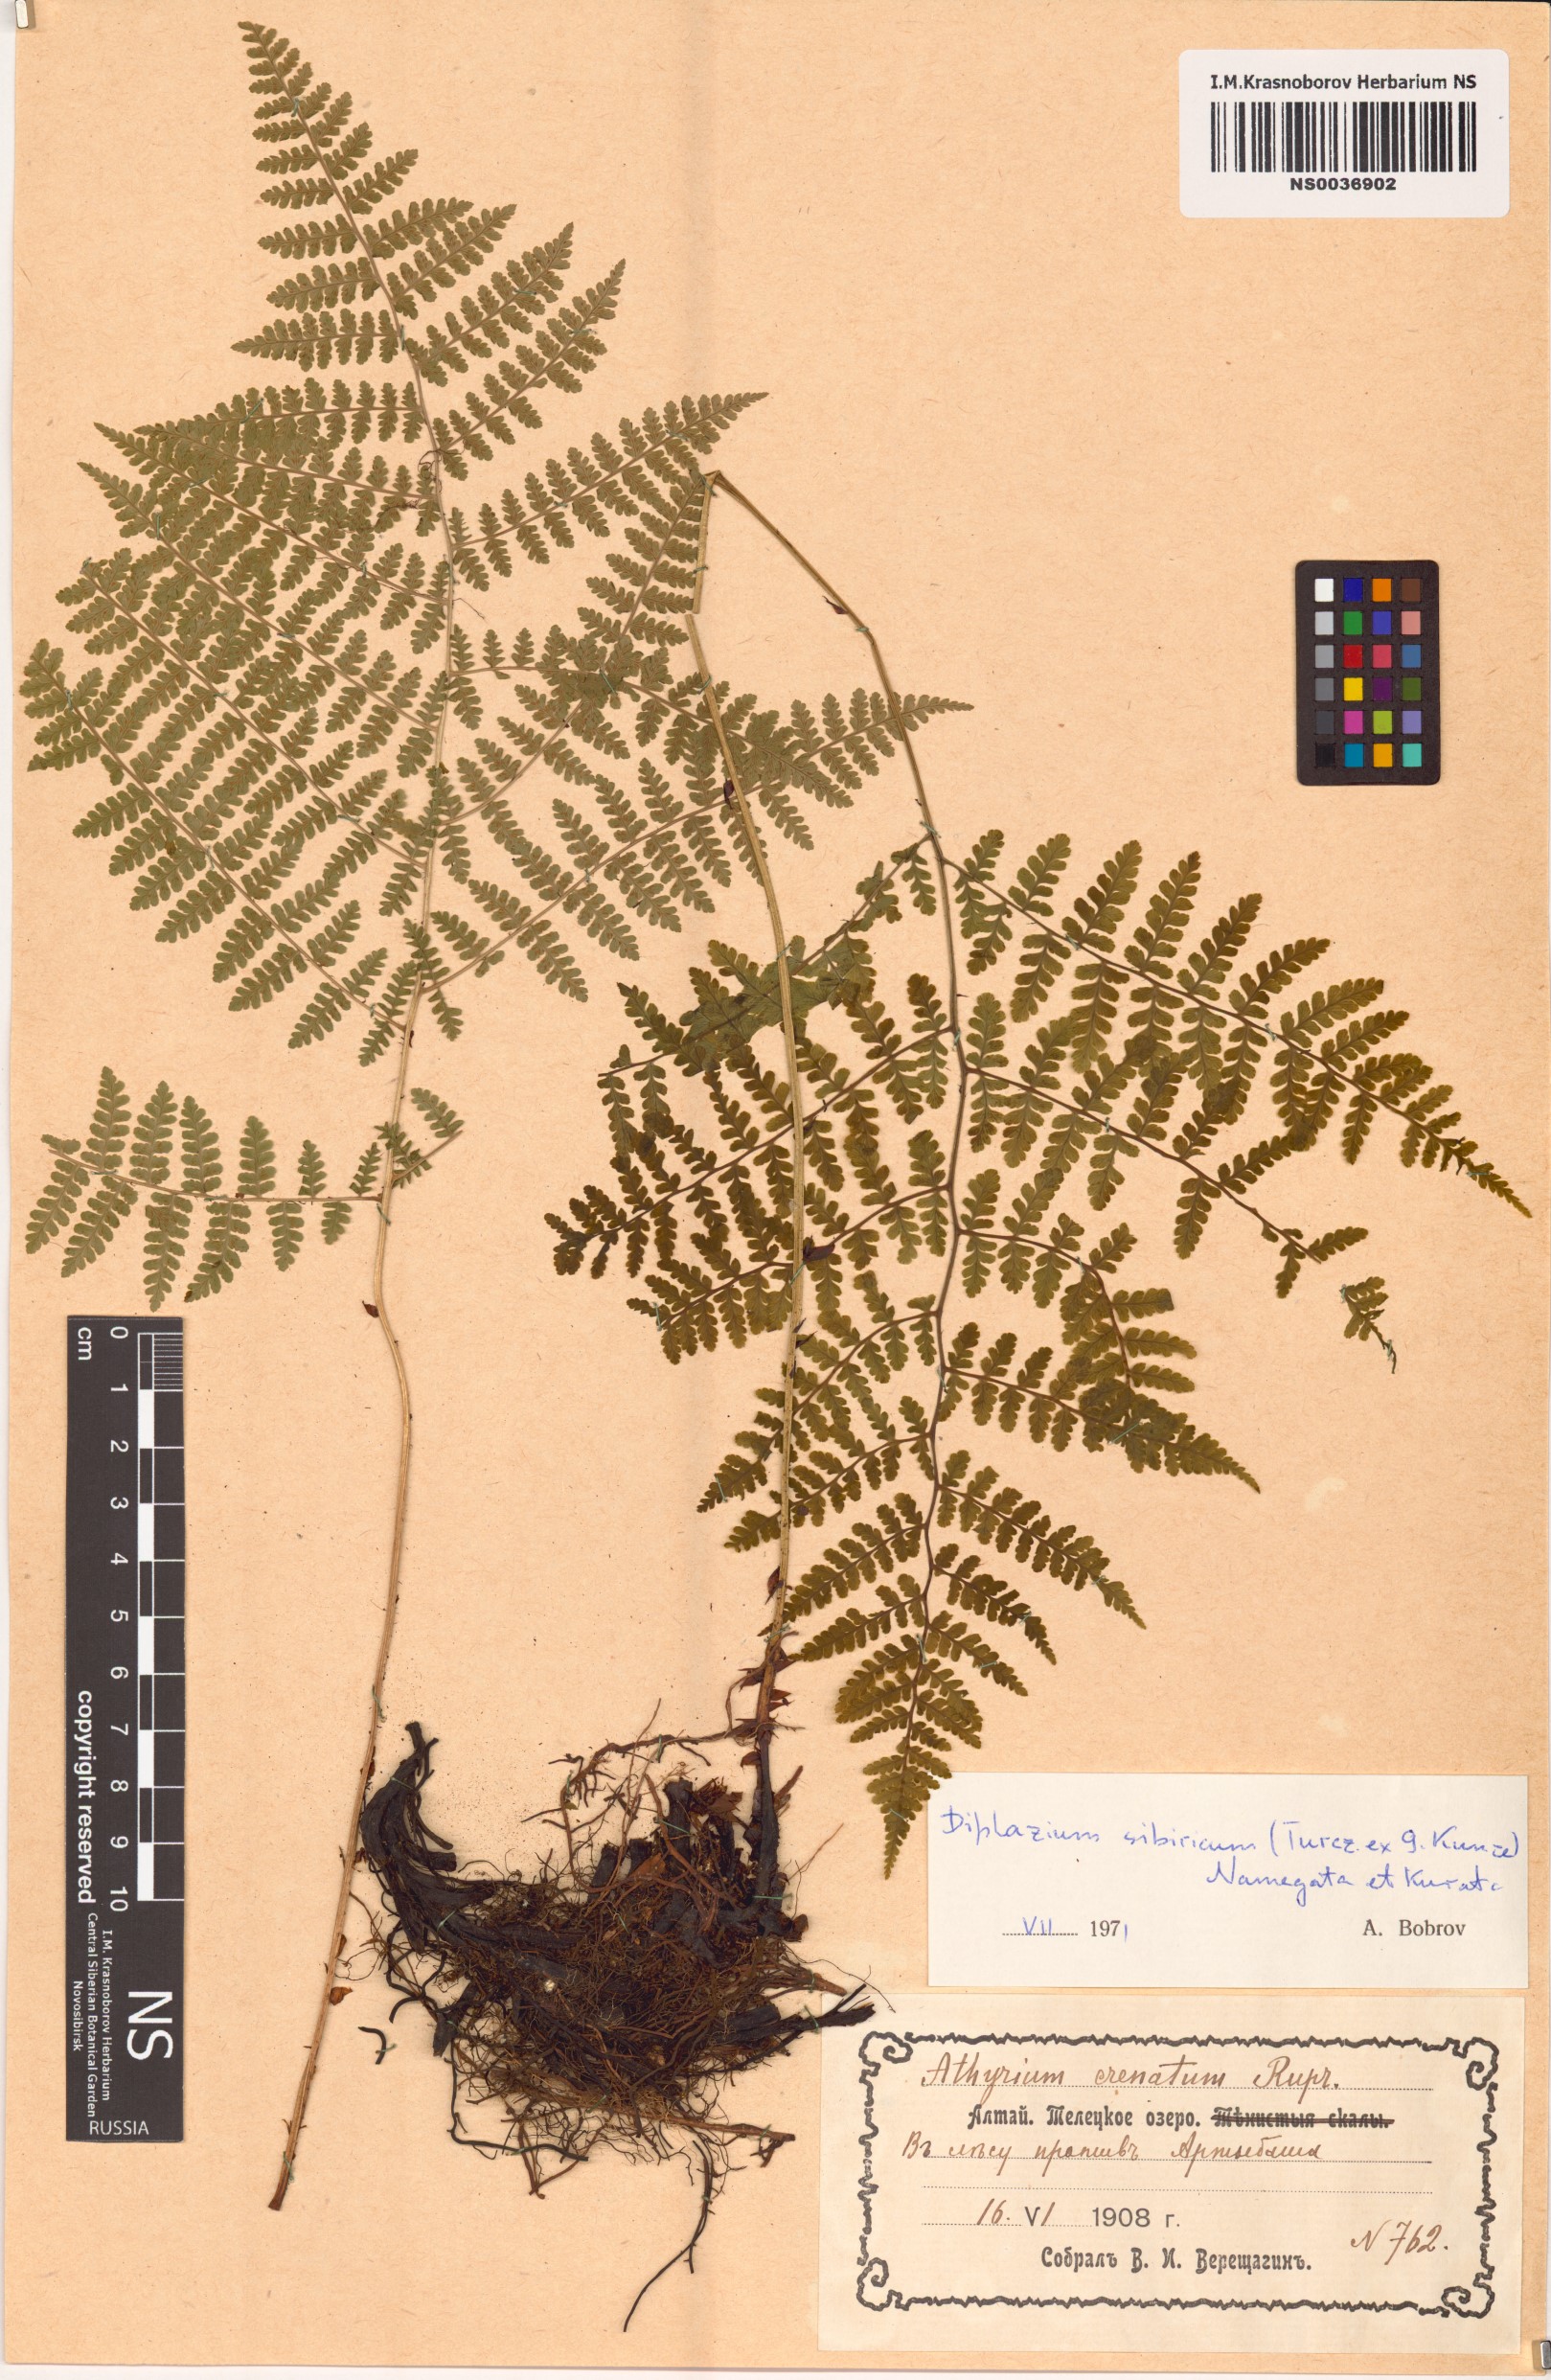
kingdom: Plantae
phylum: Tracheophyta
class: Polypodiopsida
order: Polypodiales
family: Athyriaceae
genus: Diplazium
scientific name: Diplazium sibiricum
